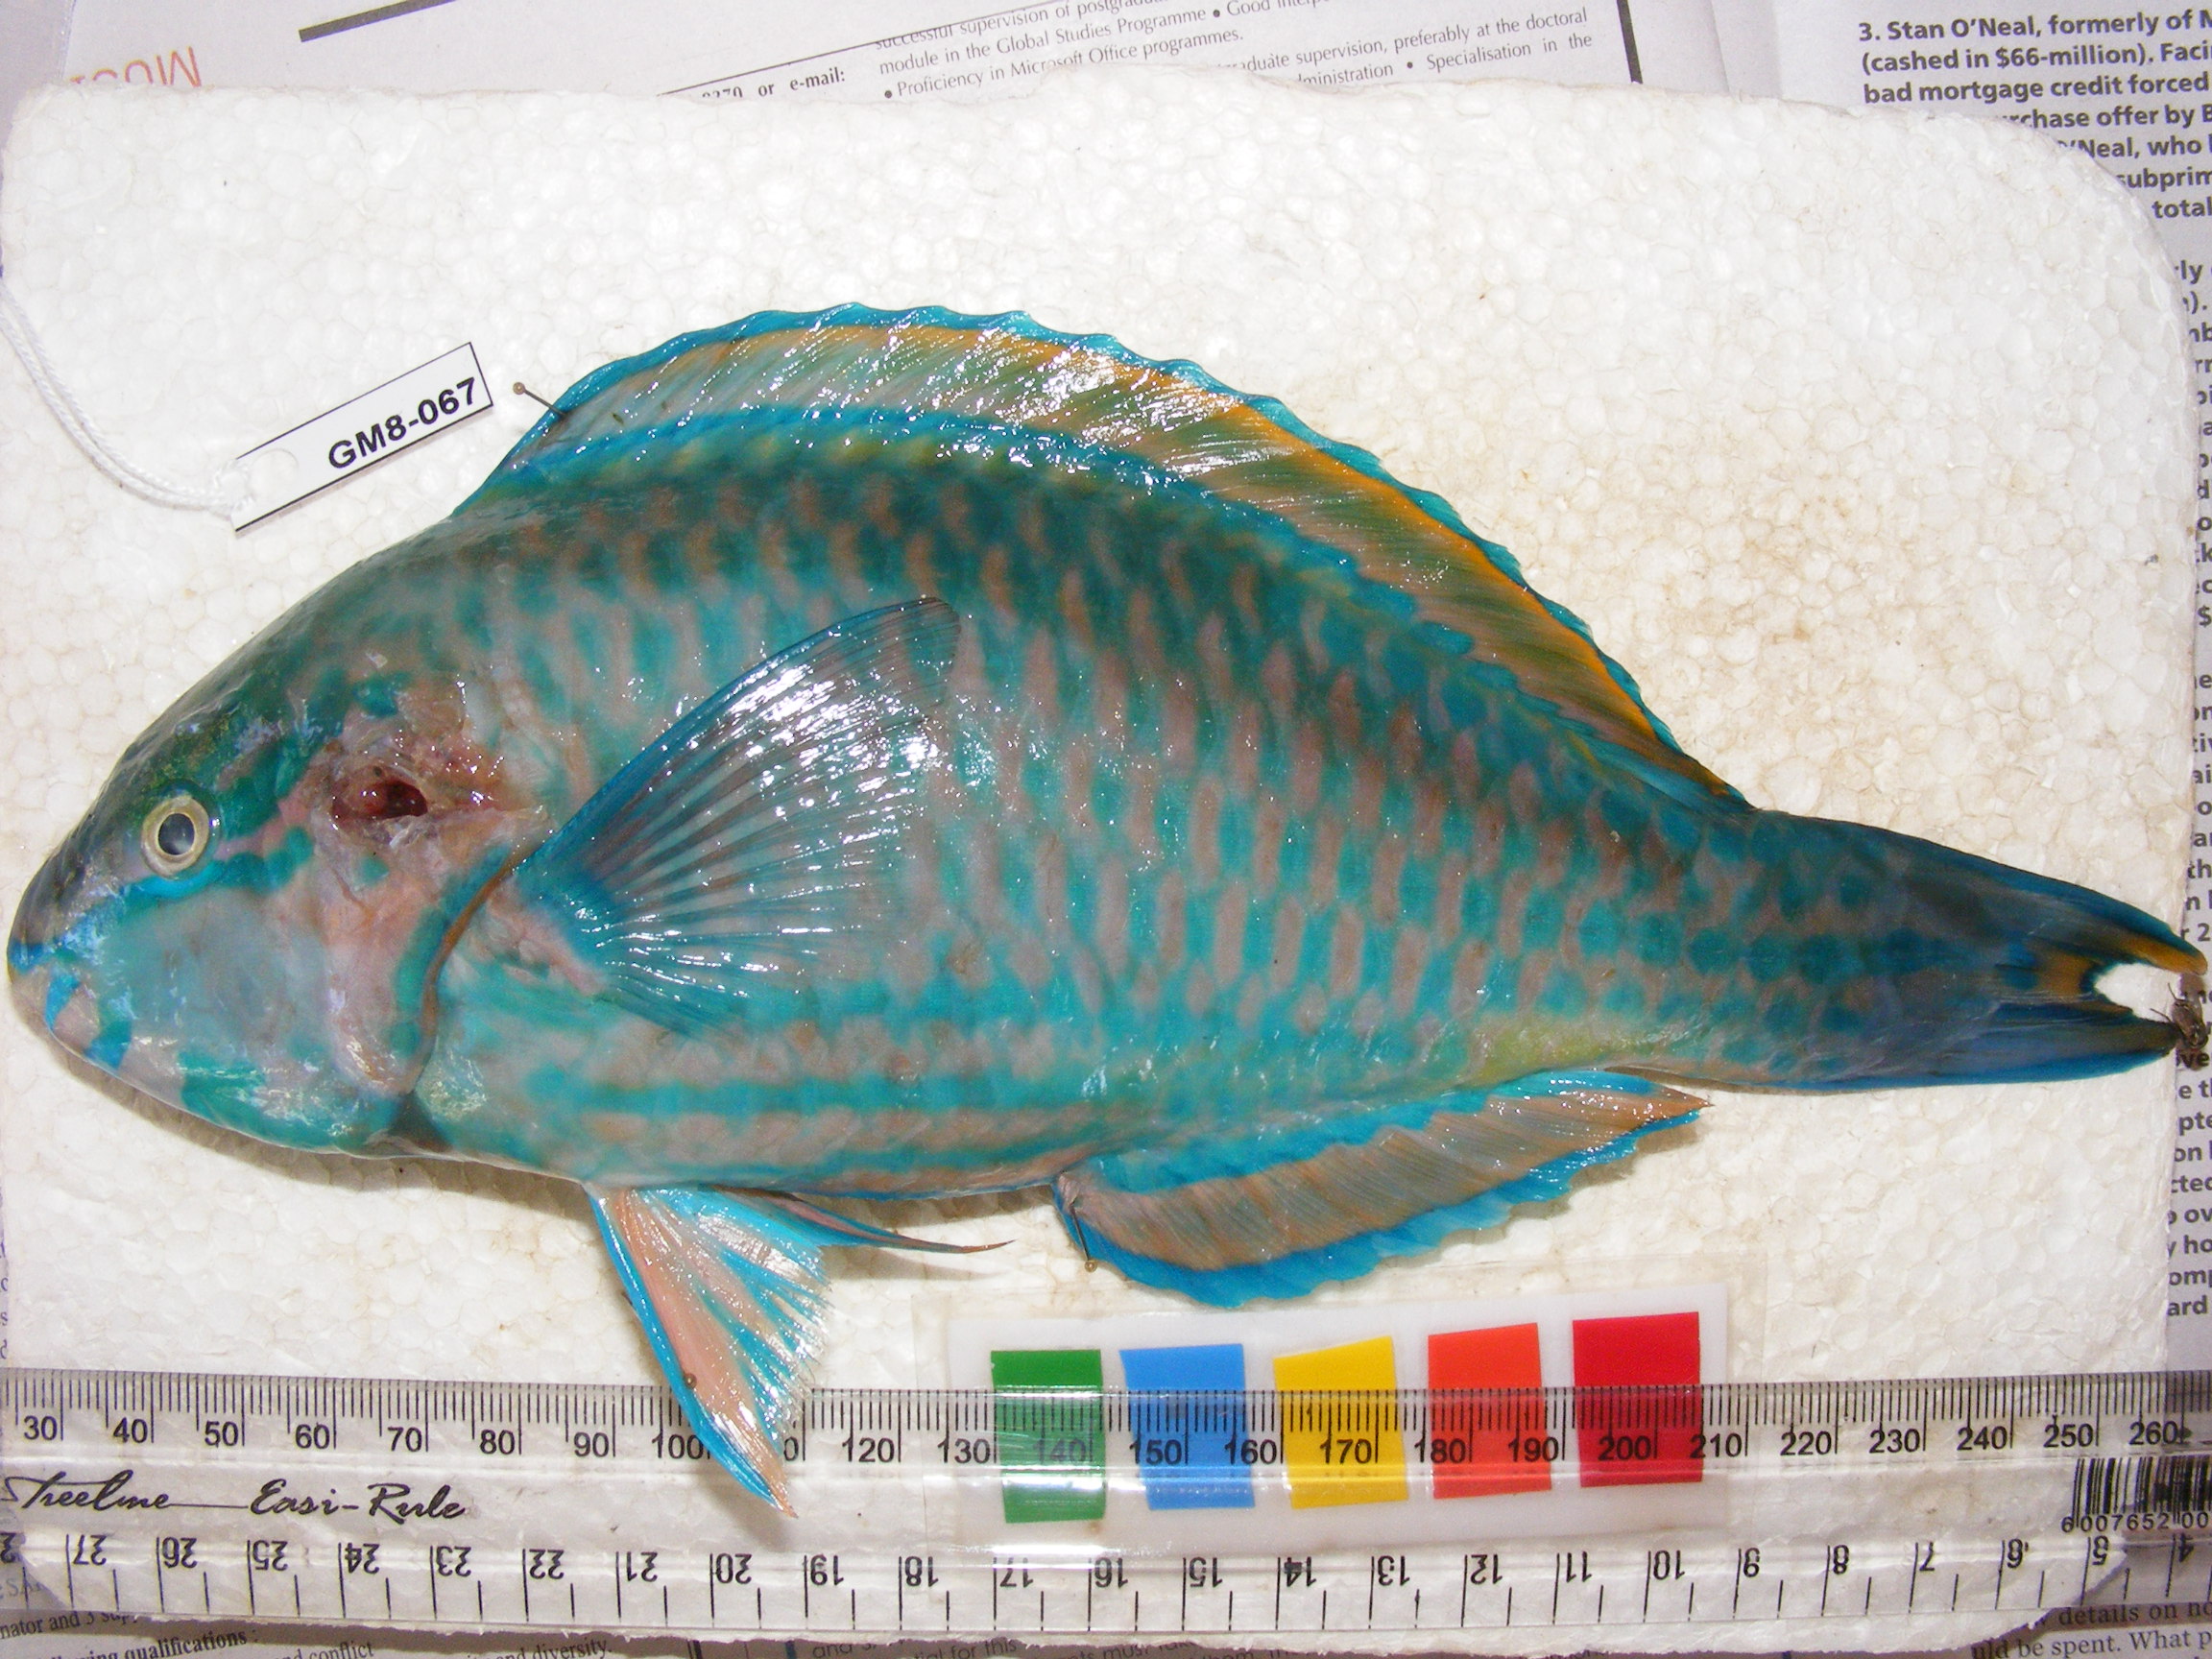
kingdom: Animalia
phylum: Chordata
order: Perciformes
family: Scaridae
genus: Scarus
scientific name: Scarus russelii
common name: Eclipse parrotfish
